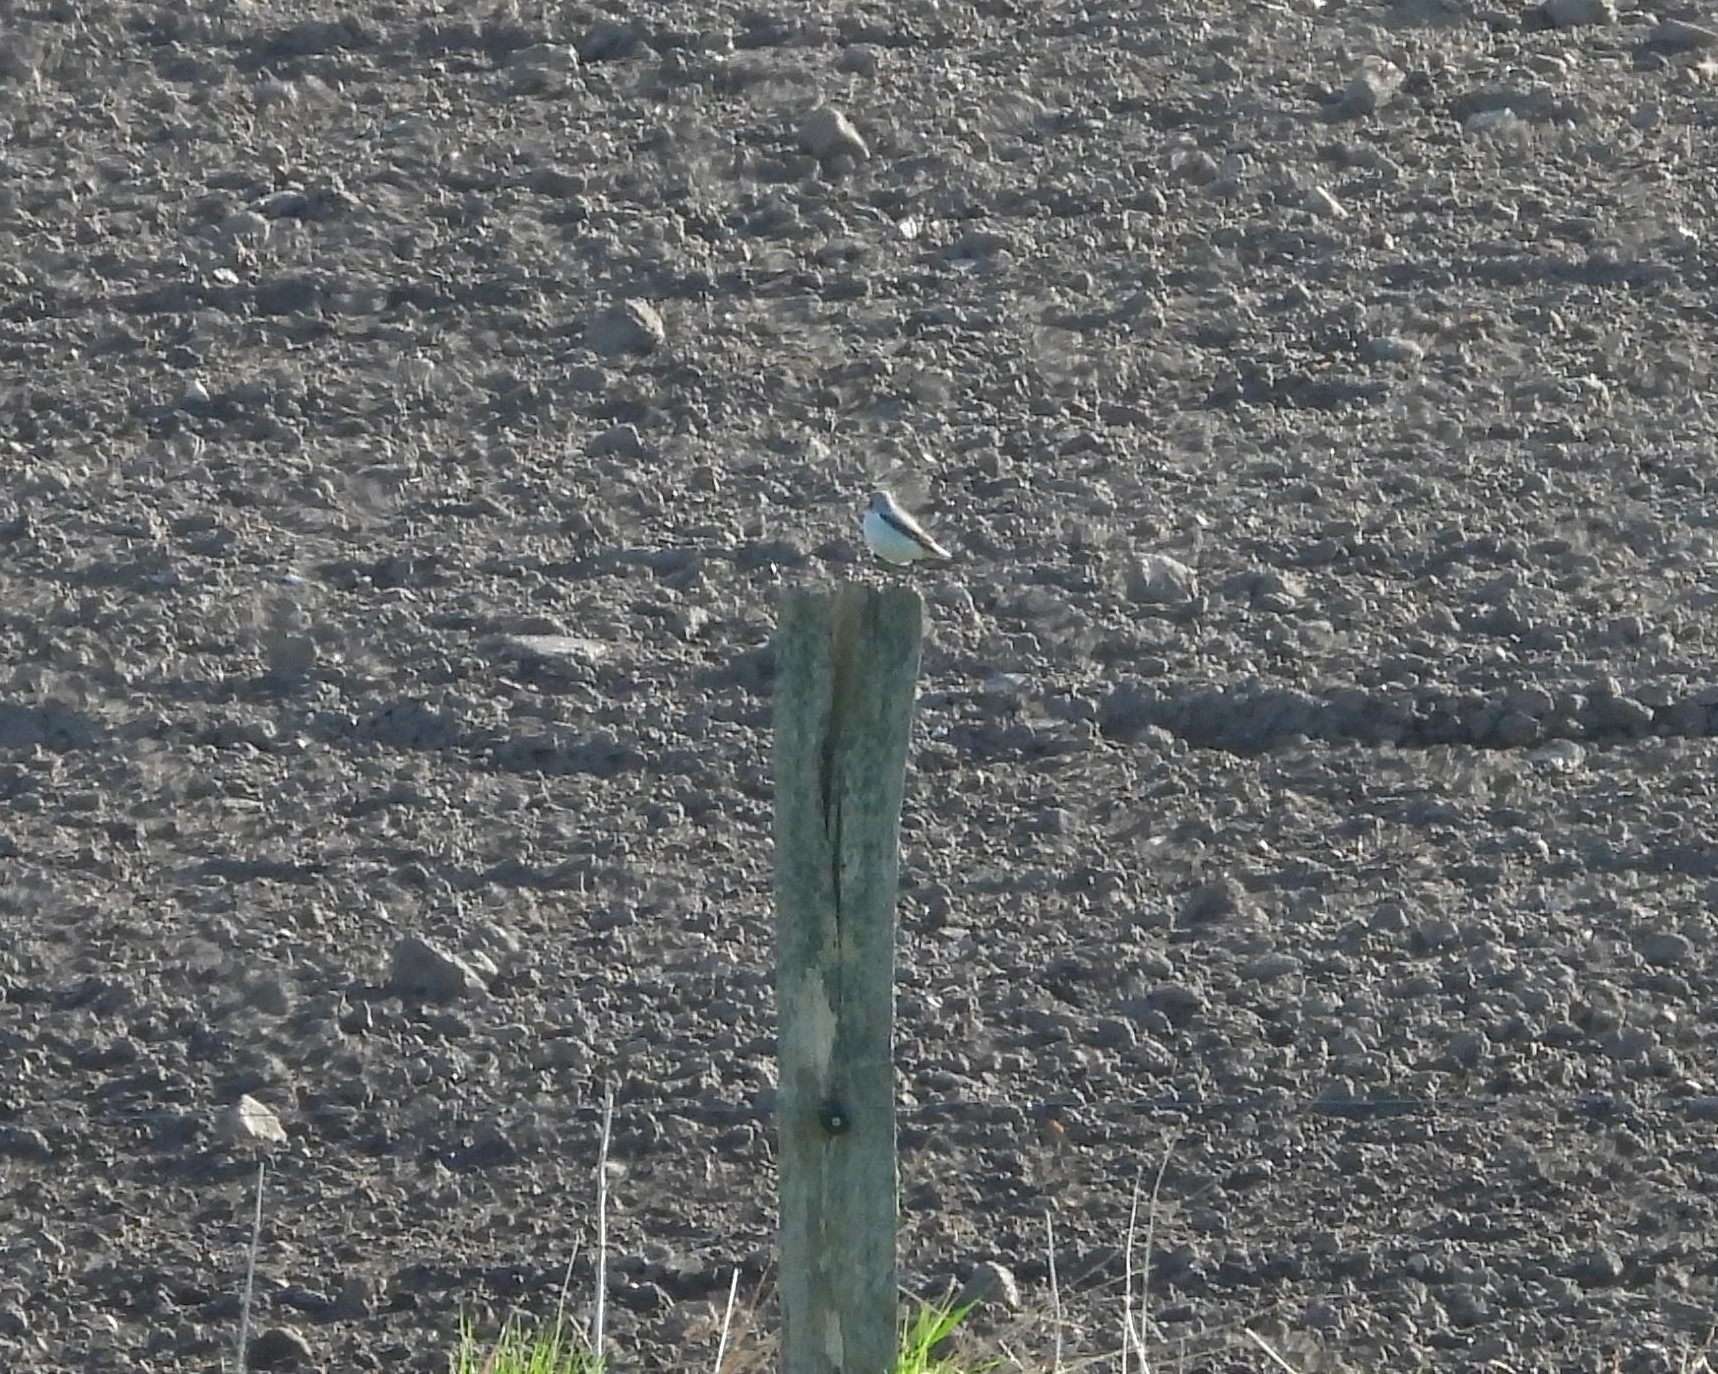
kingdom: Animalia
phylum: Chordata
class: Aves
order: Passeriformes
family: Muscicapidae
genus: Oenanthe
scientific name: Oenanthe oenanthe
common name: Stenpikker
